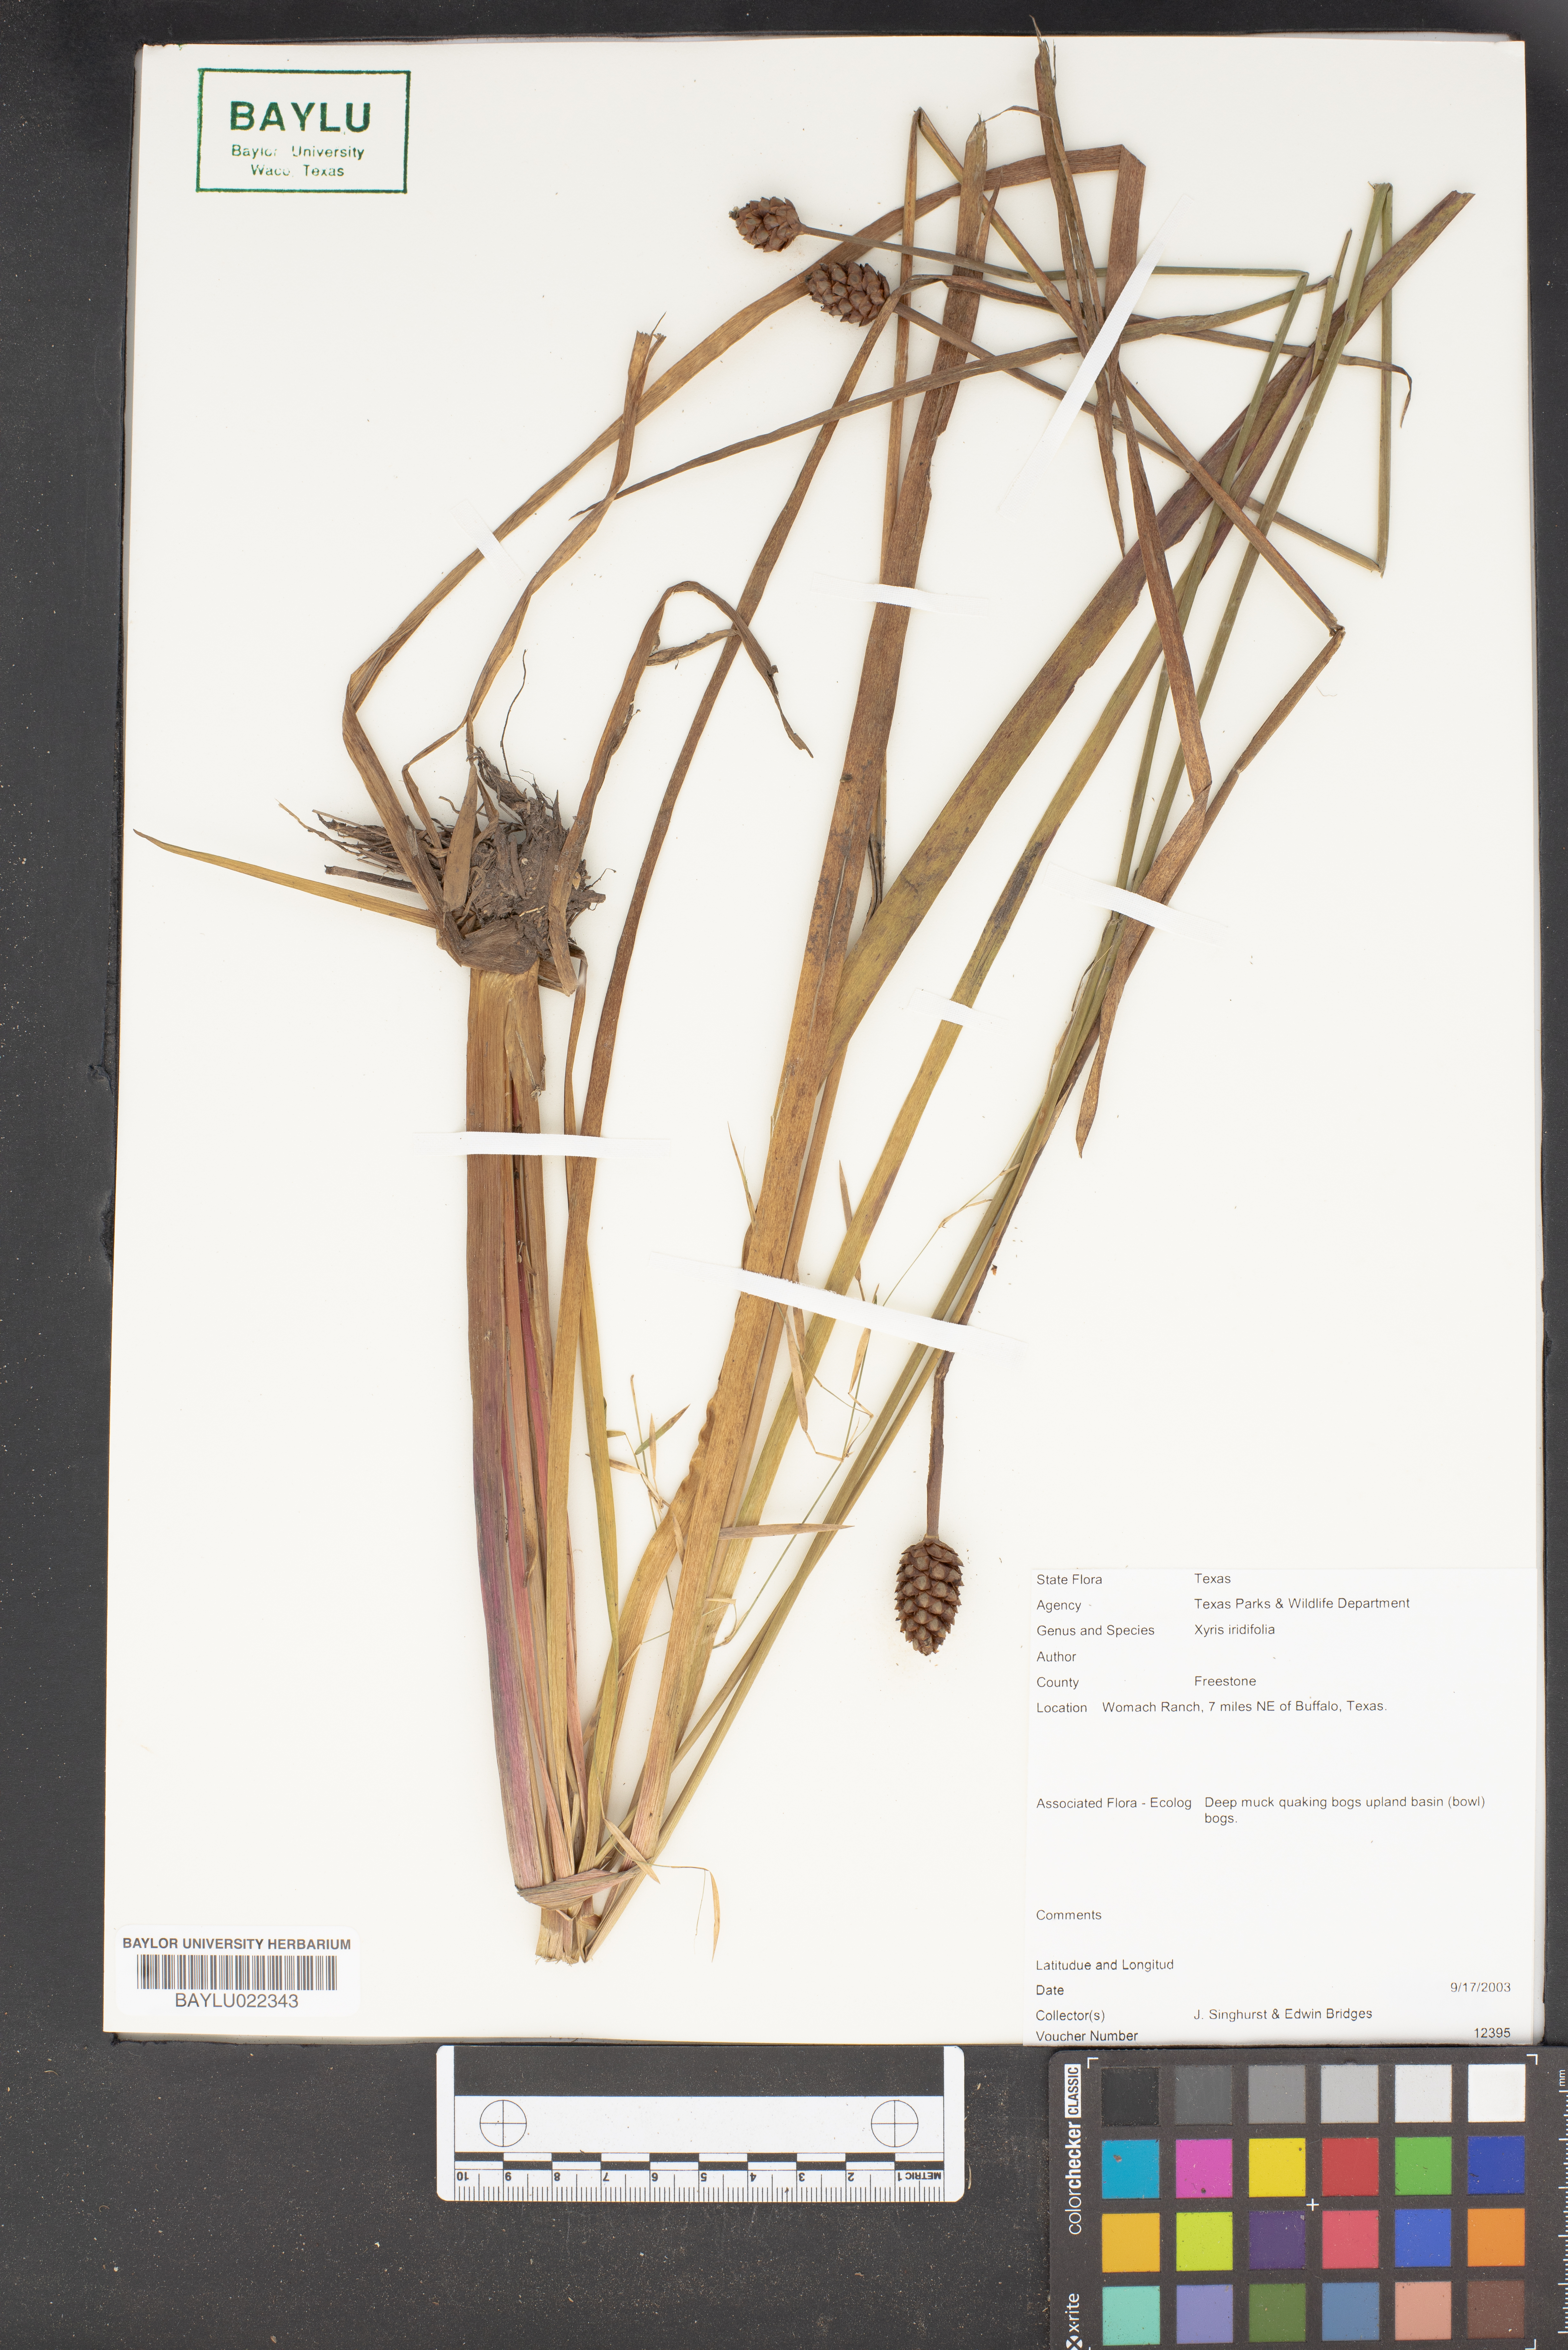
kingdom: Plantae
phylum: Tracheophyta
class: Liliopsida
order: Poales
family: Xyridaceae
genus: Xyris
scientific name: Xyris laxifolia
